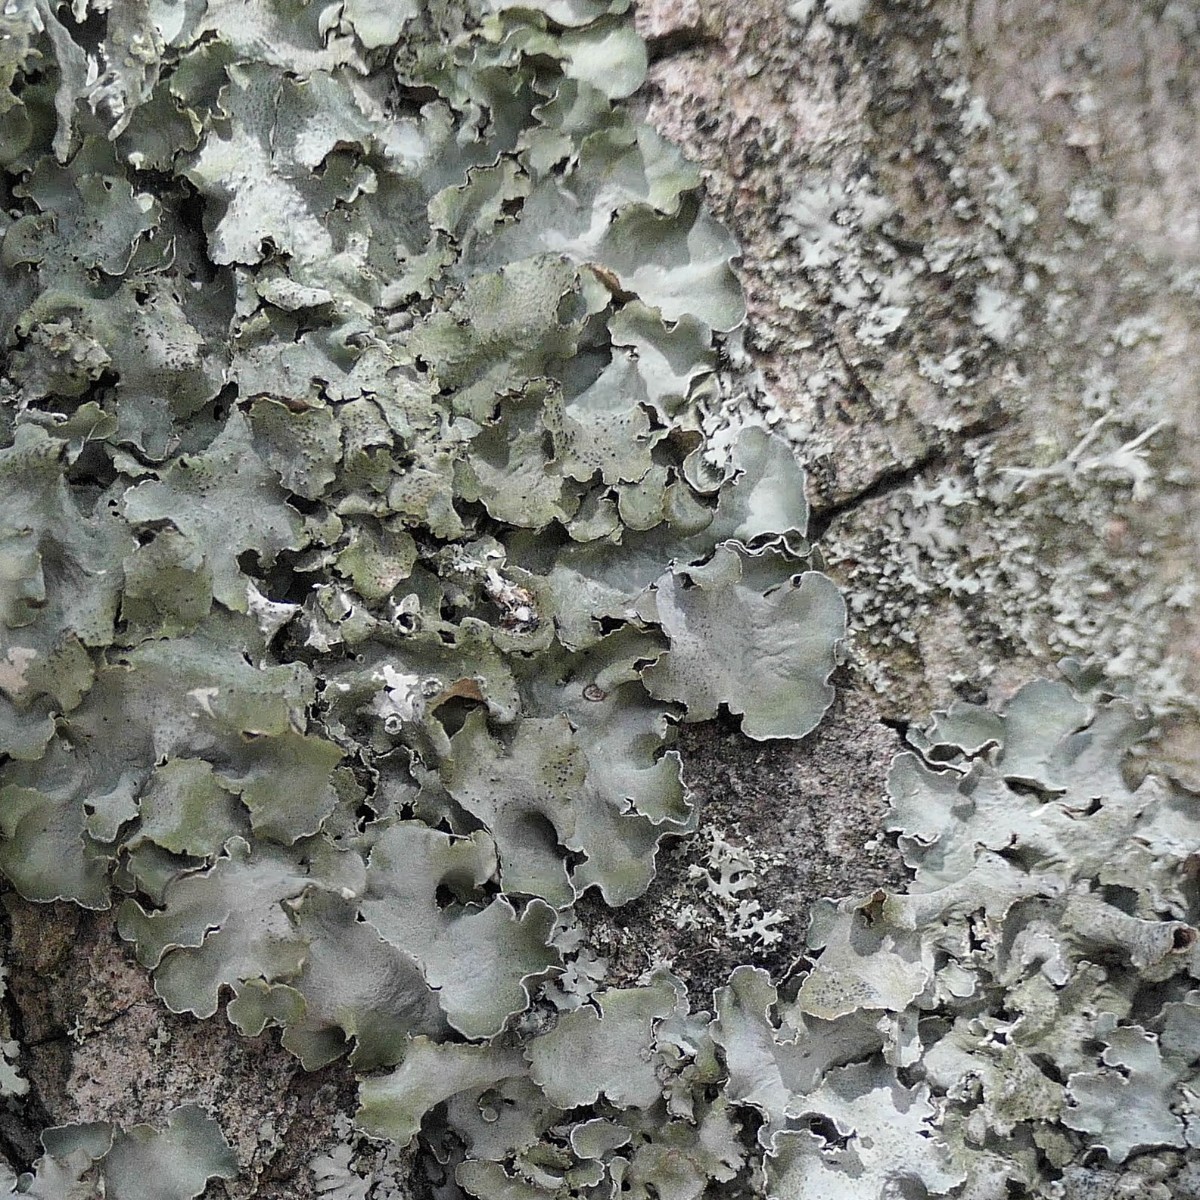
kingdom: Fungi
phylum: Ascomycota
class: Lecanoromycetes
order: Lecanorales
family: Parmeliaceae
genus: Pleurosticta
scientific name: Pleurosticta acetabulum
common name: stor skållav
